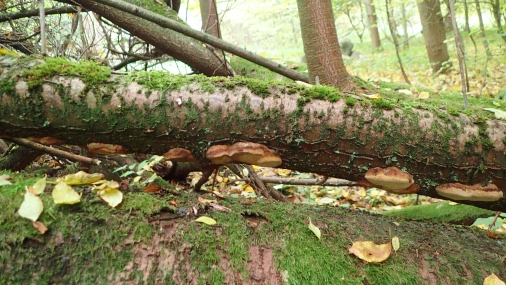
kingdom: Fungi
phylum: Basidiomycota
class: Agaricomycetes
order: Hymenochaetales
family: Hymenochaetaceae
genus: Phellinus
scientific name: Phellinus pomaceus
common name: blomme-ildporesvamp
